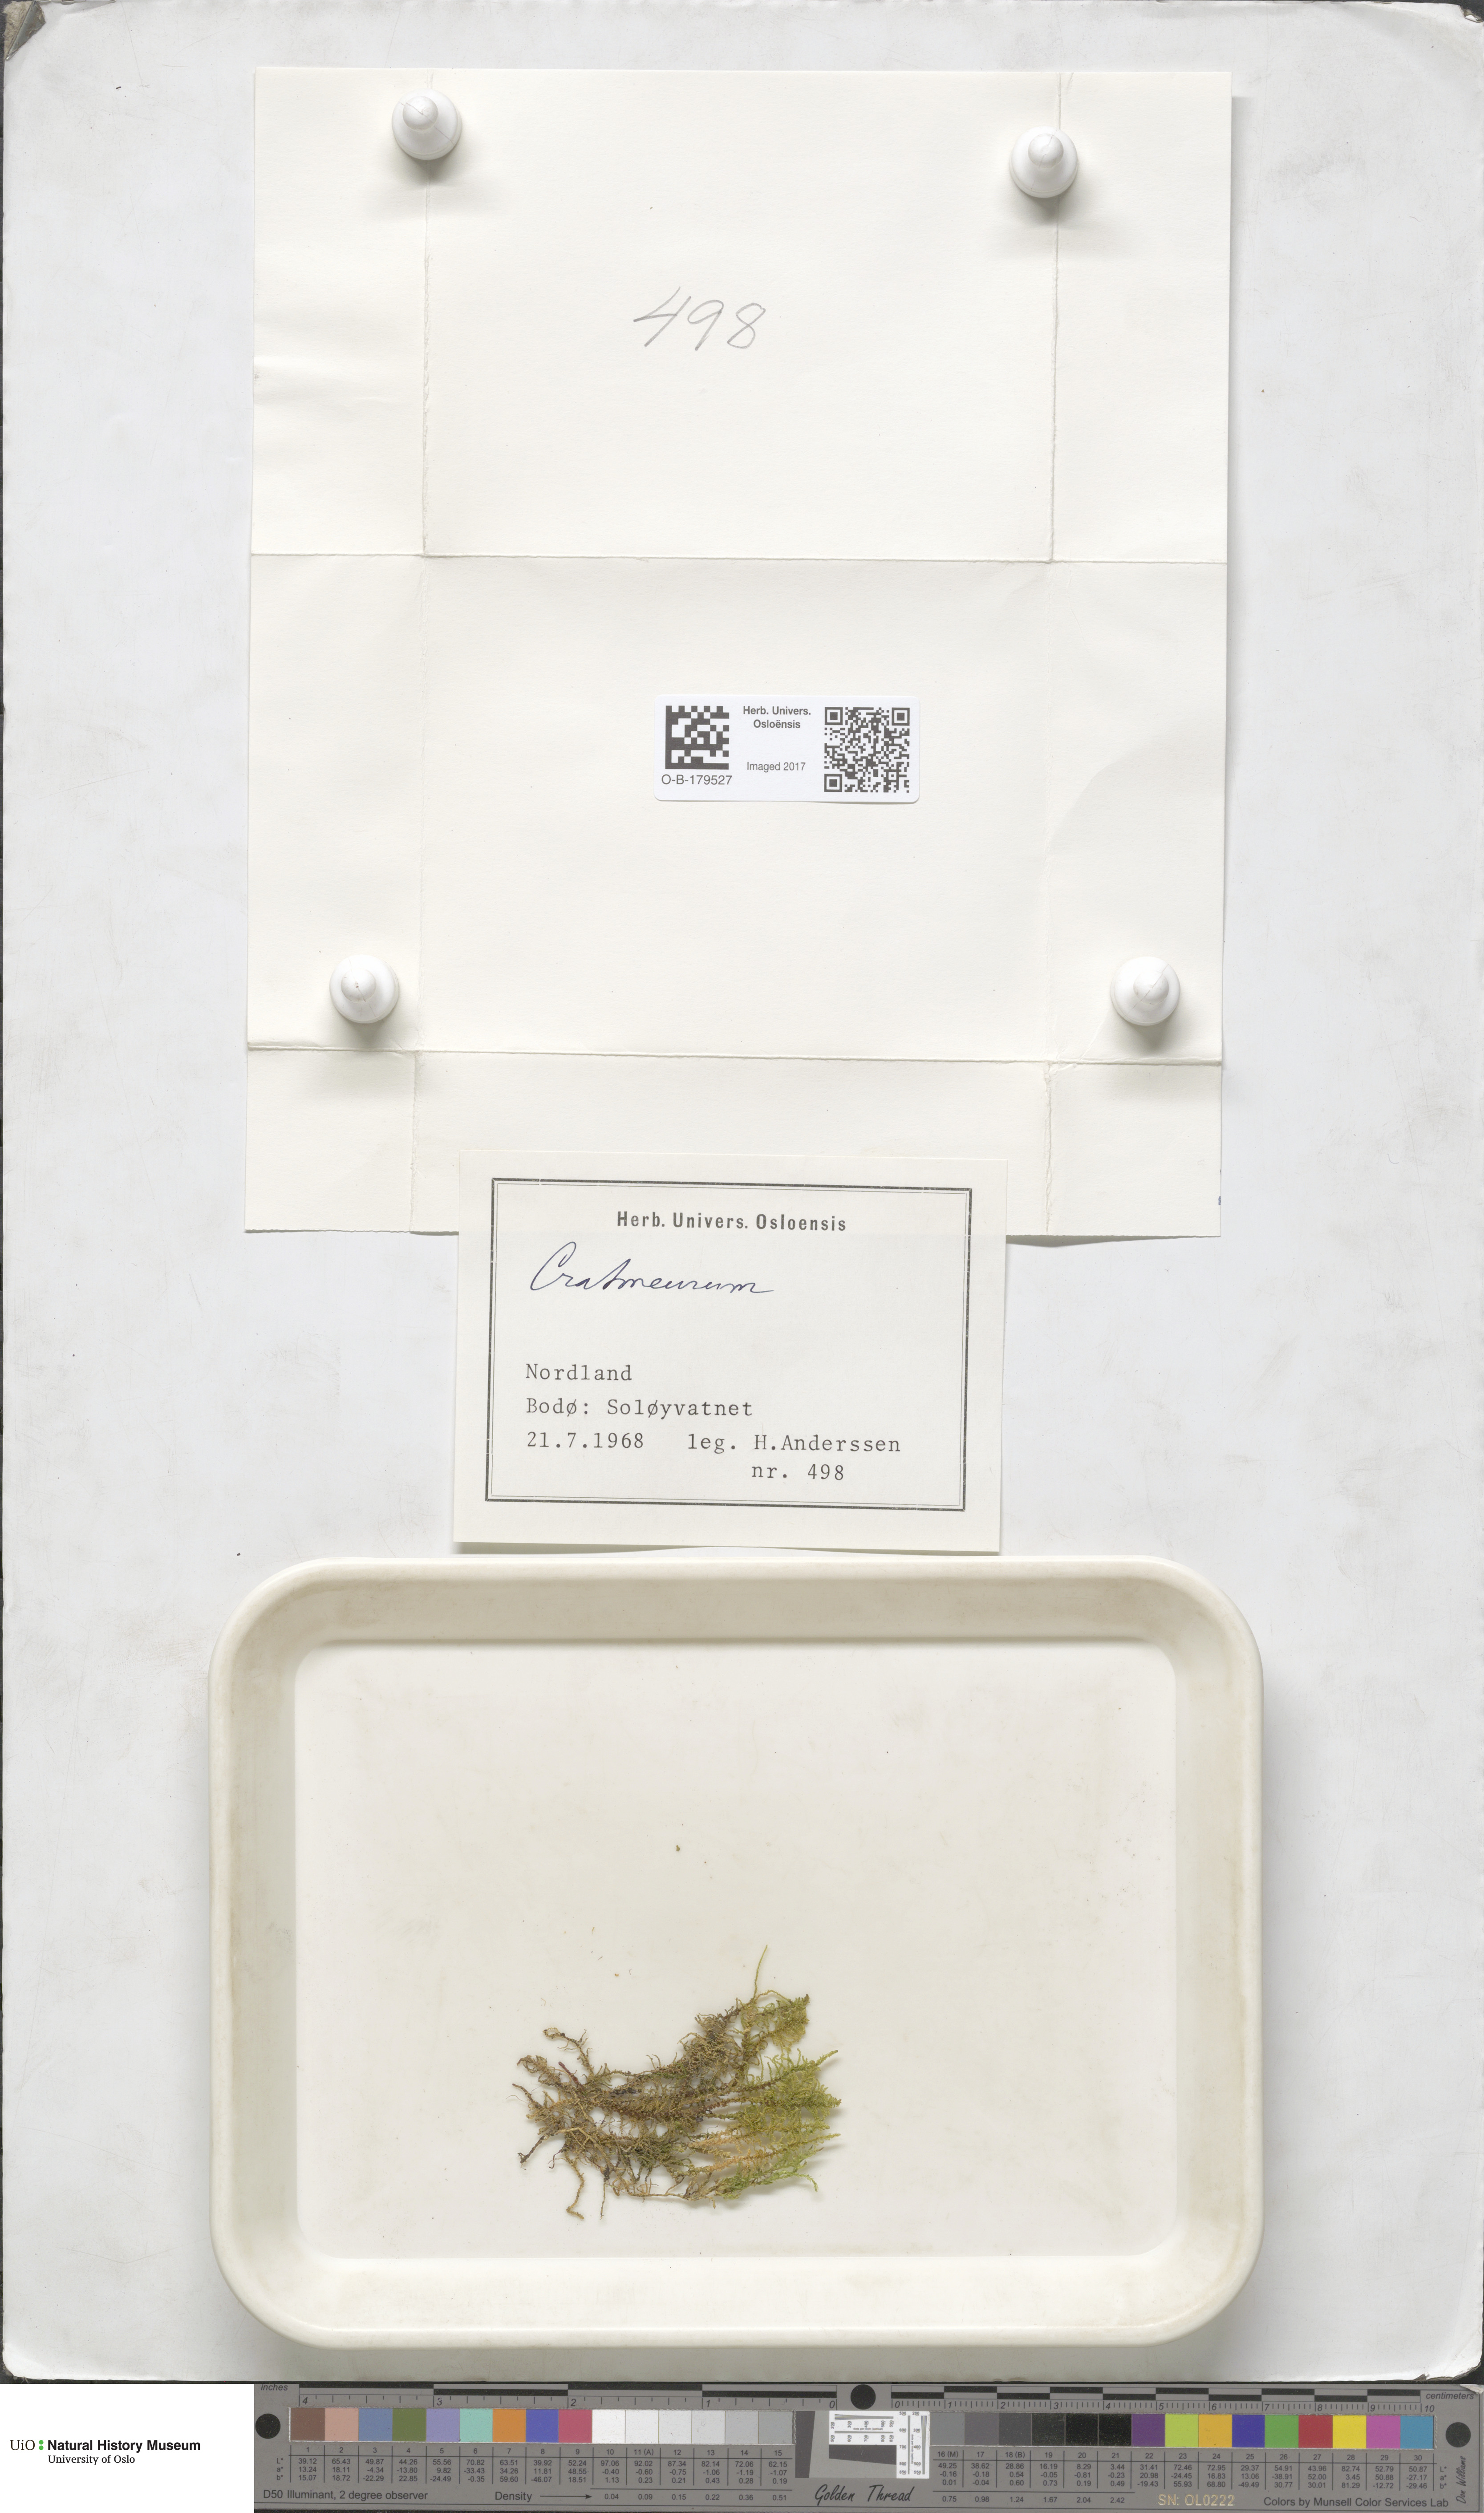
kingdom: Plantae
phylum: Bryophyta
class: Bryopsida
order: Hypnales
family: Amblystegiaceae
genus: Cratoneuron
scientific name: Cratoneuron
